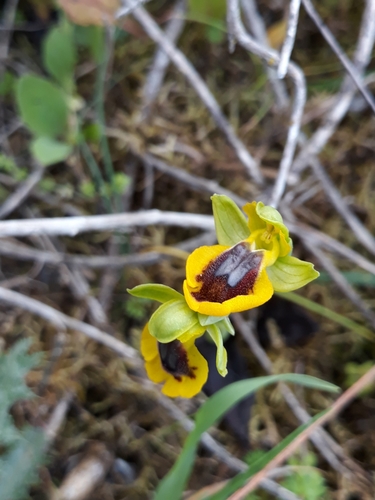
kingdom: Plantae
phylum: Tracheophyta
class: Liliopsida
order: Asparagales
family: Orchidaceae
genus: Ophrys
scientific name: Ophrys lutea
